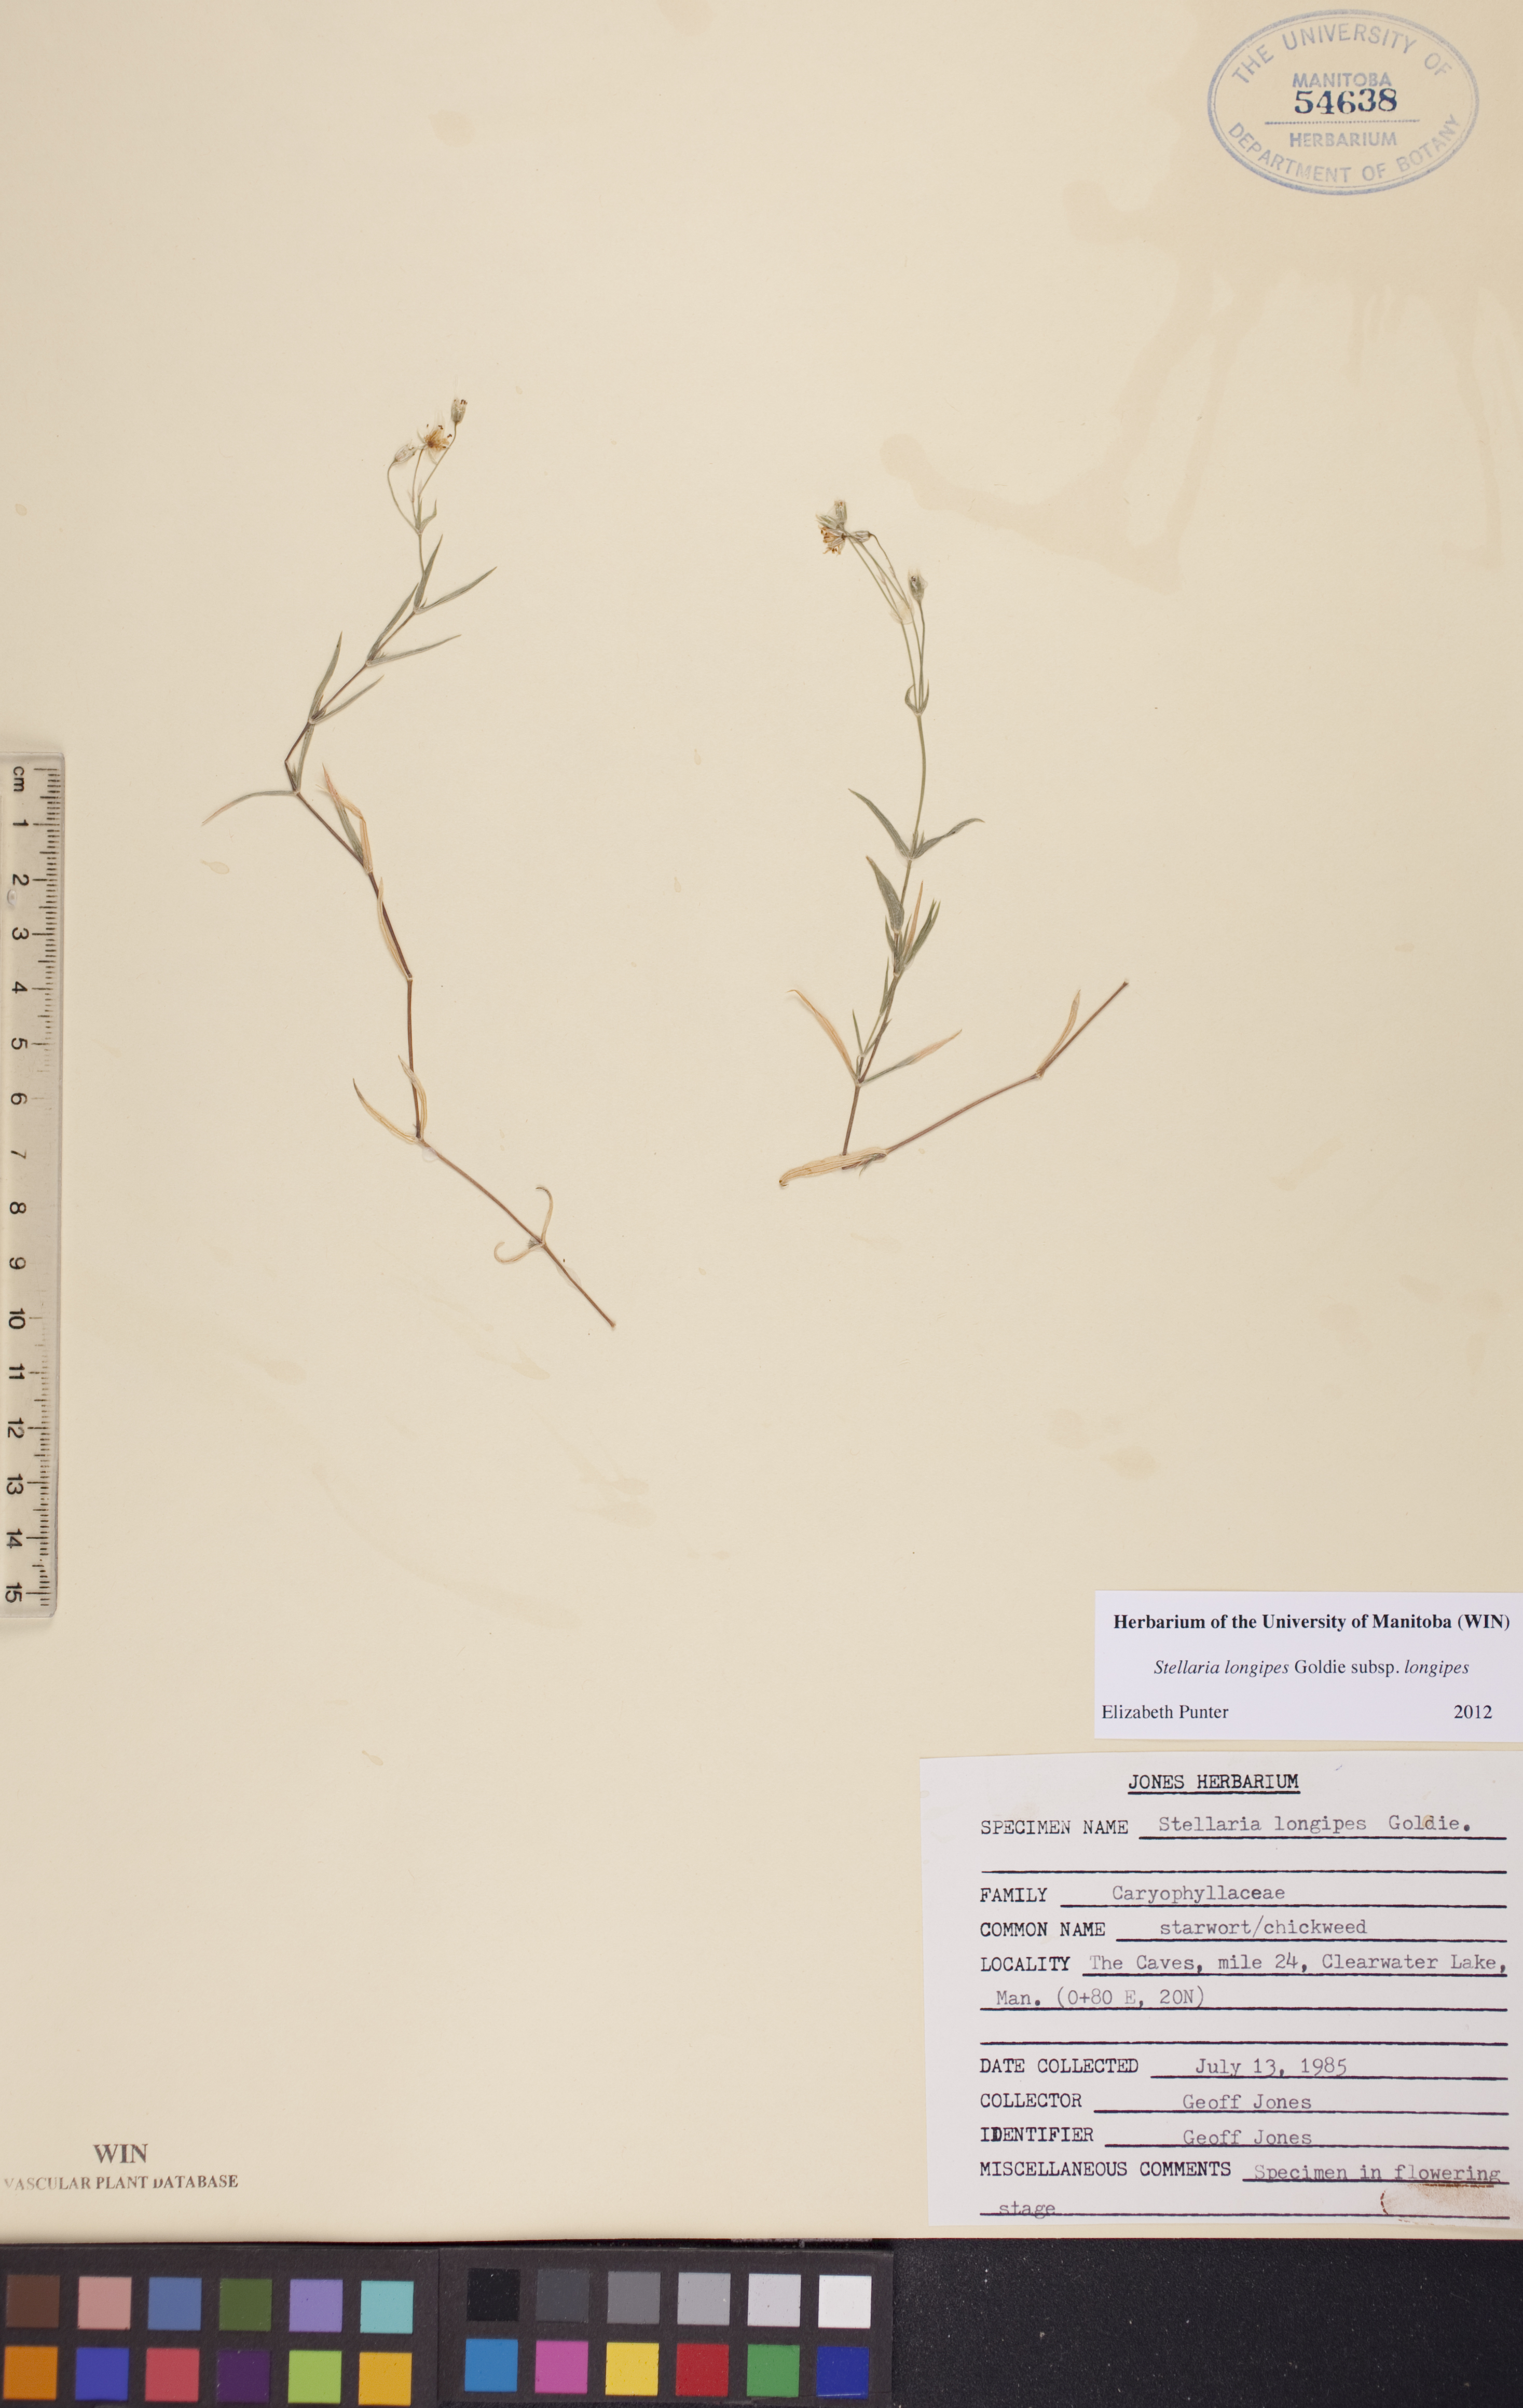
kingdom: Plantae
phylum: Tracheophyta
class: Magnoliopsida
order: Caryophyllales
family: Caryophyllaceae
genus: Stellaria
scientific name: Stellaria longipes
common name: Goldie's starwort
